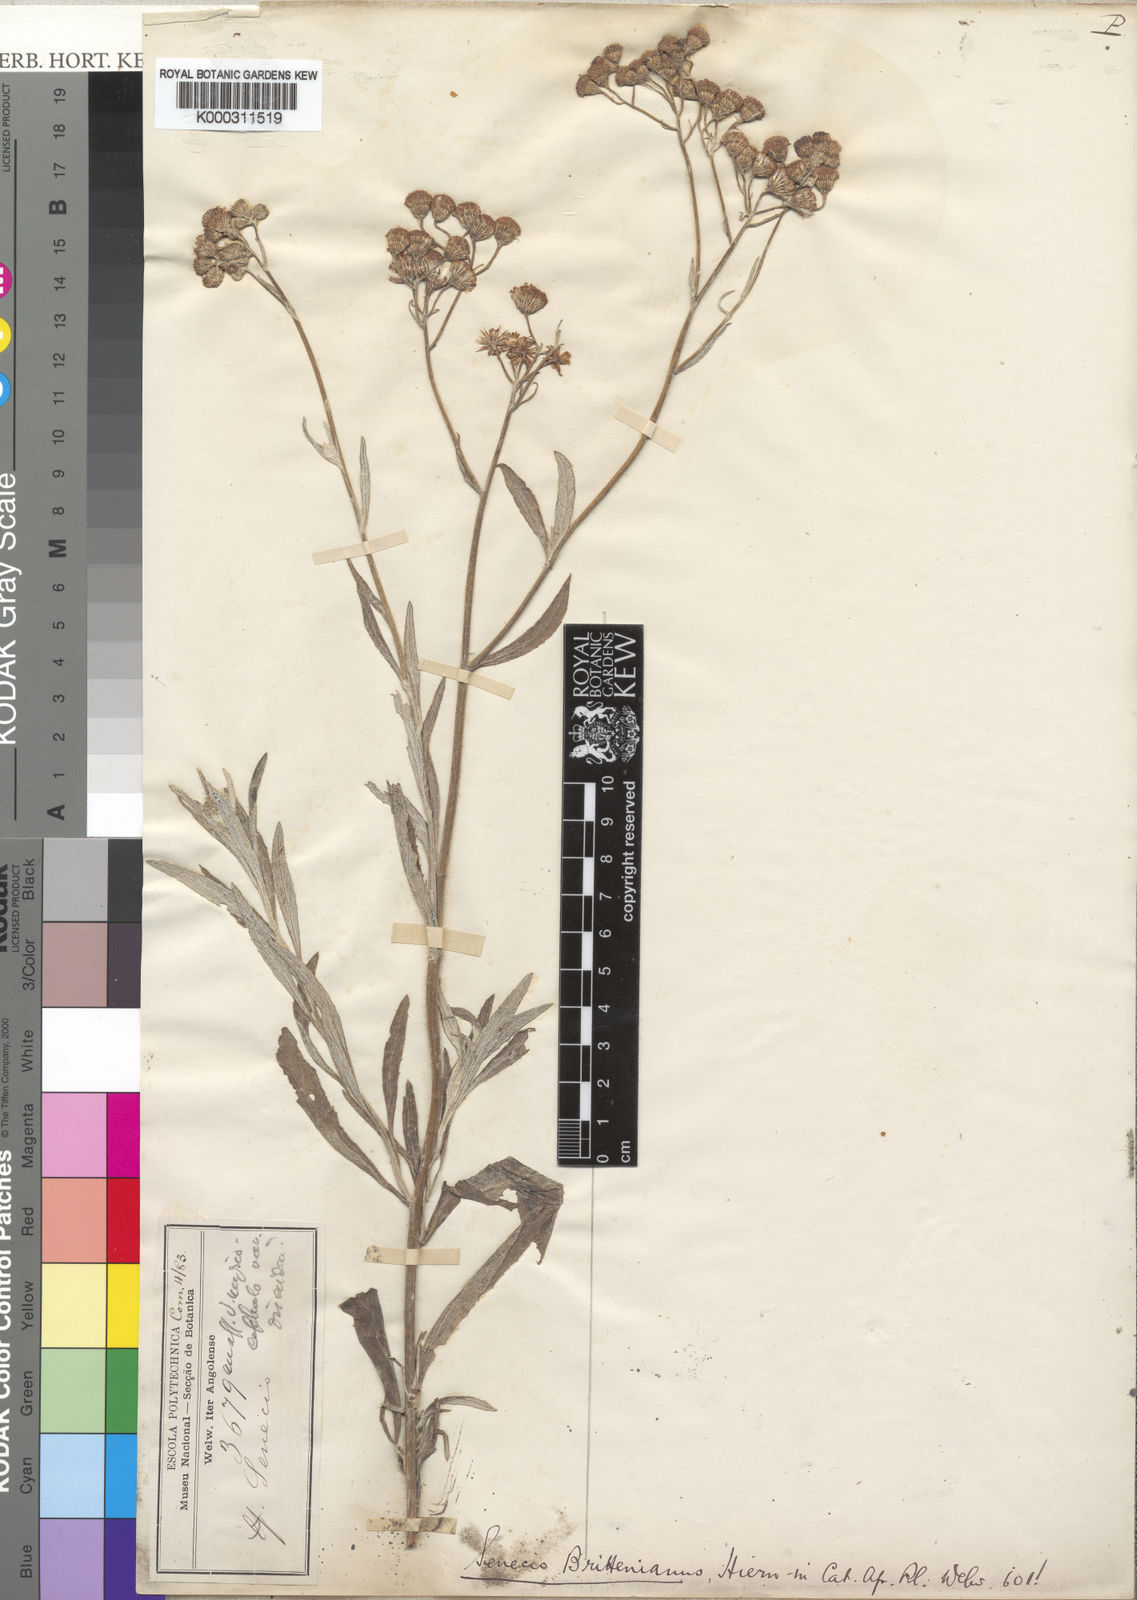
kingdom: Plantae
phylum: Tracheophyta
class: Magnoliopsida
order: Asterales
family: Asteraceae
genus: Senecio
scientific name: Senecio brittenianus
